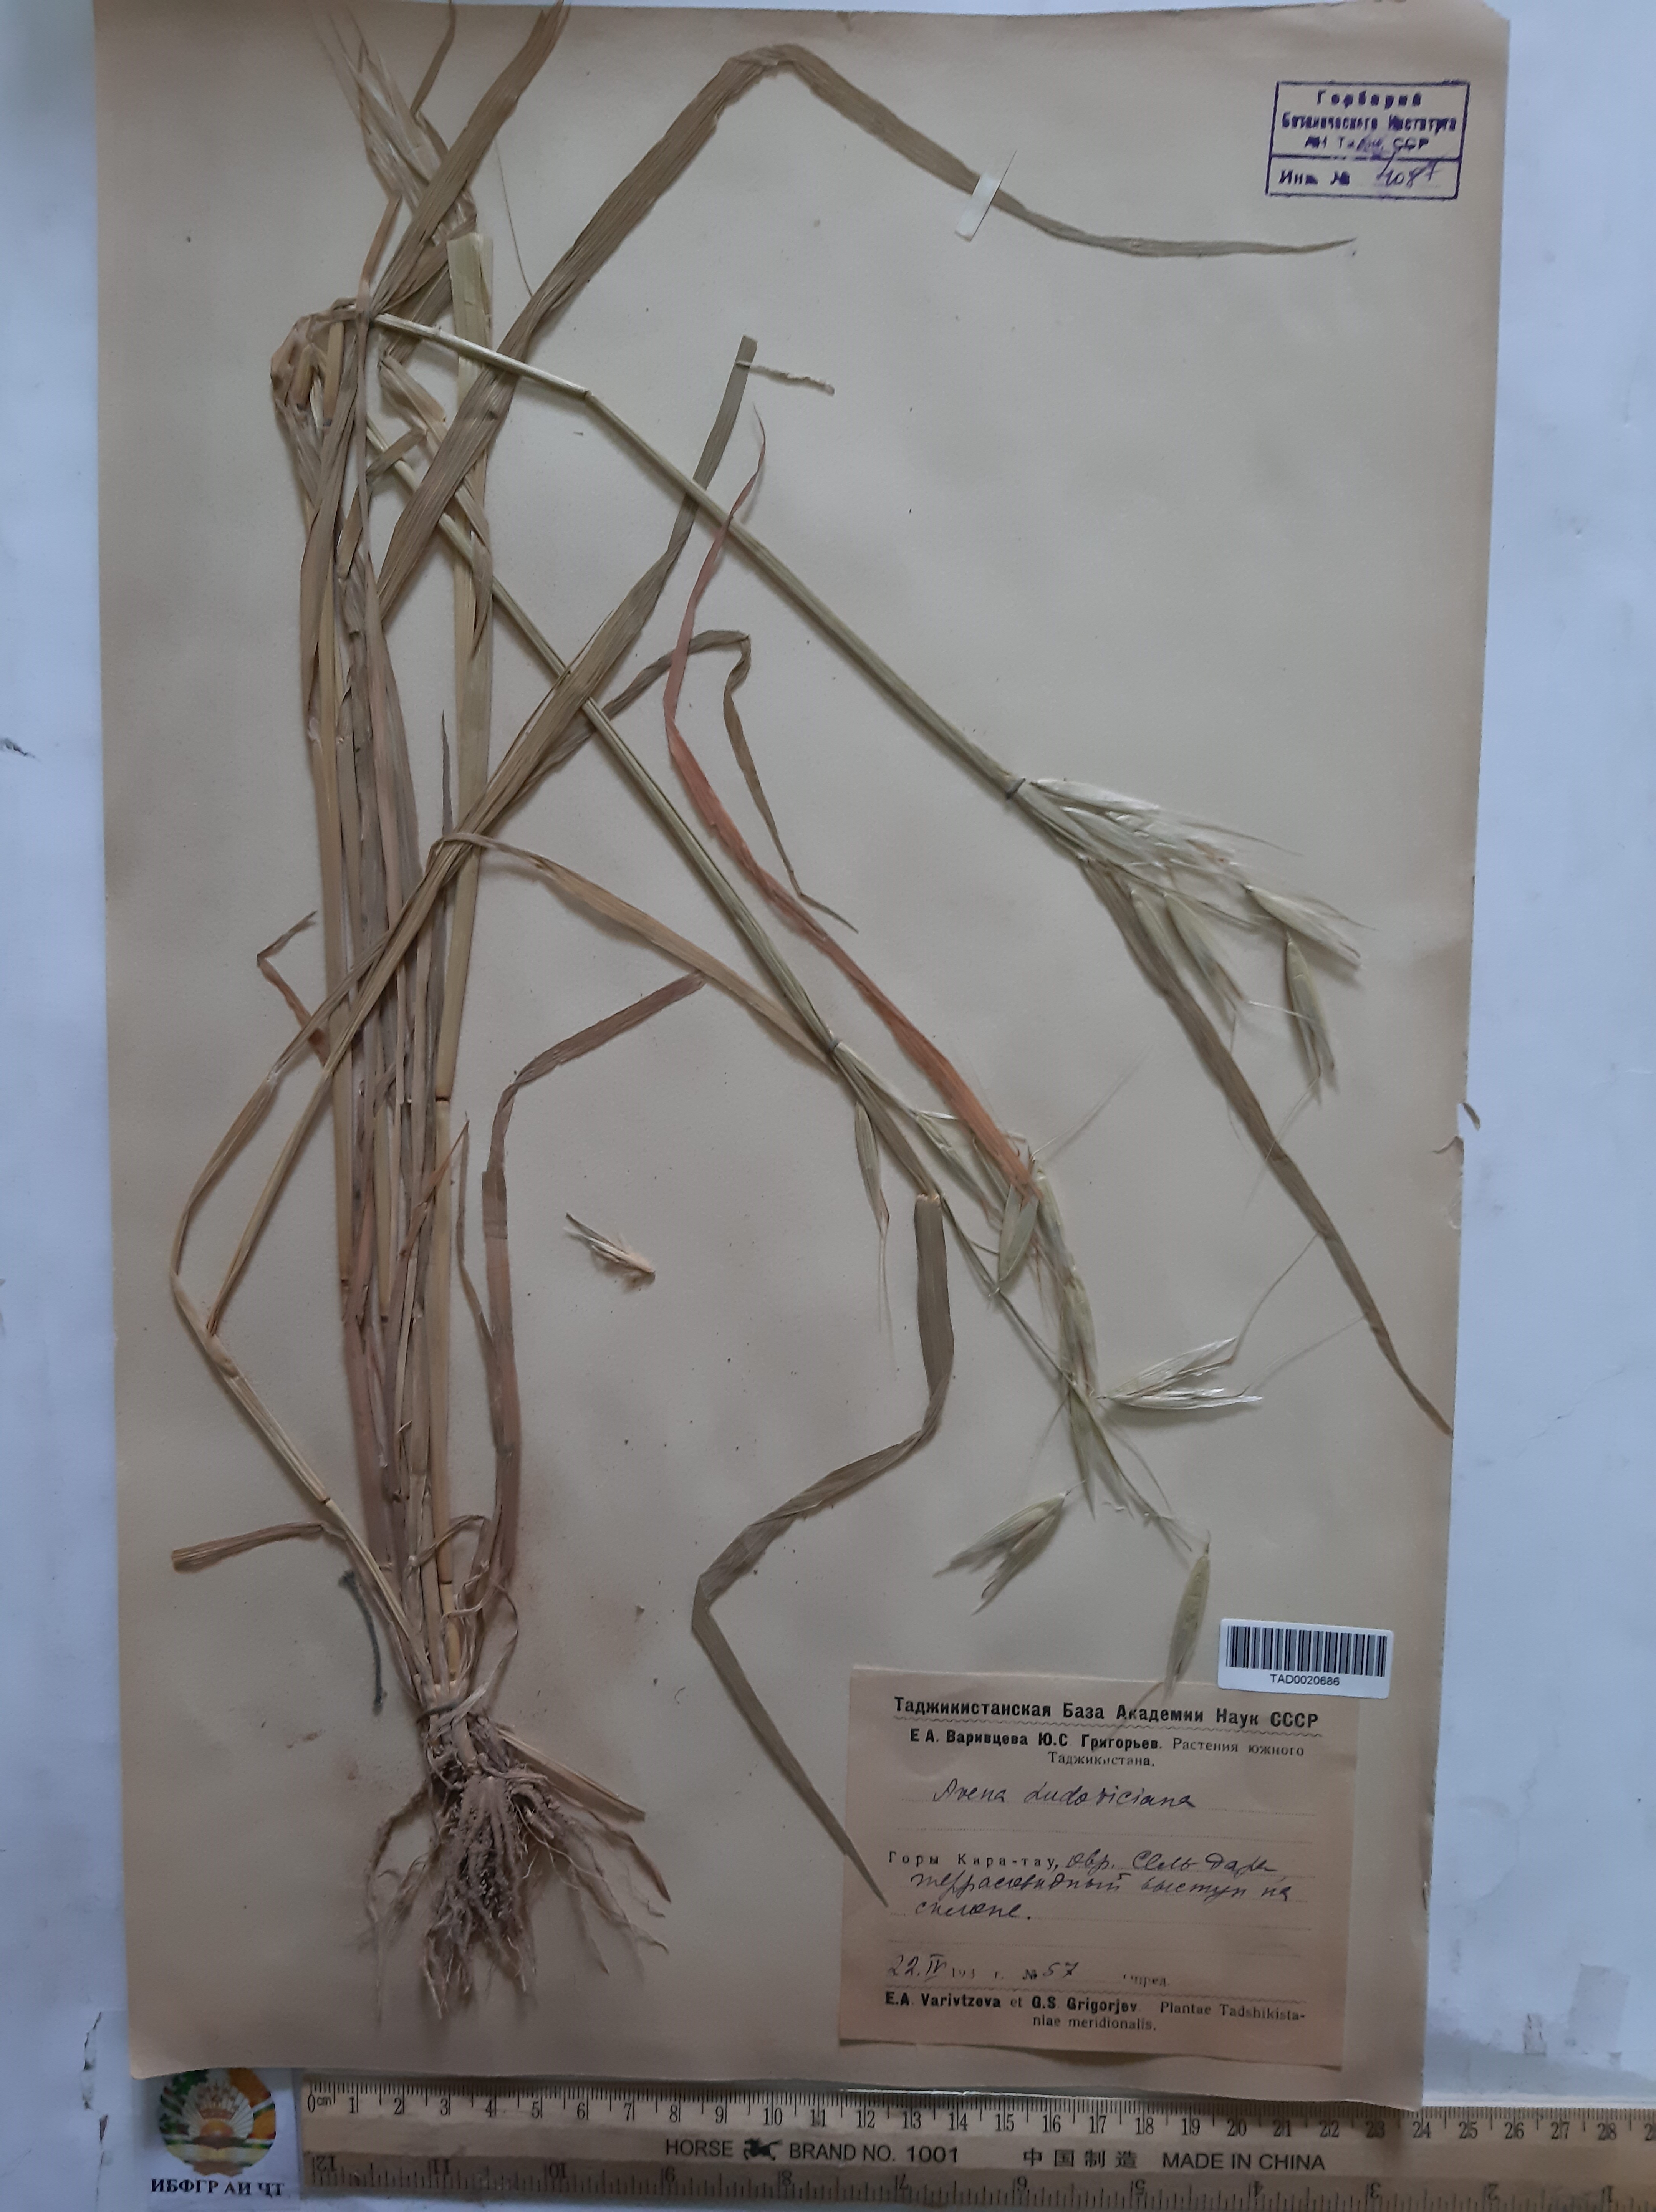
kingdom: Plantae
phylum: Tracheophyta
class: Liliopsida
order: Poales
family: Poaceae
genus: Avena
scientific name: Avena sterilis
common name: Animated oat
